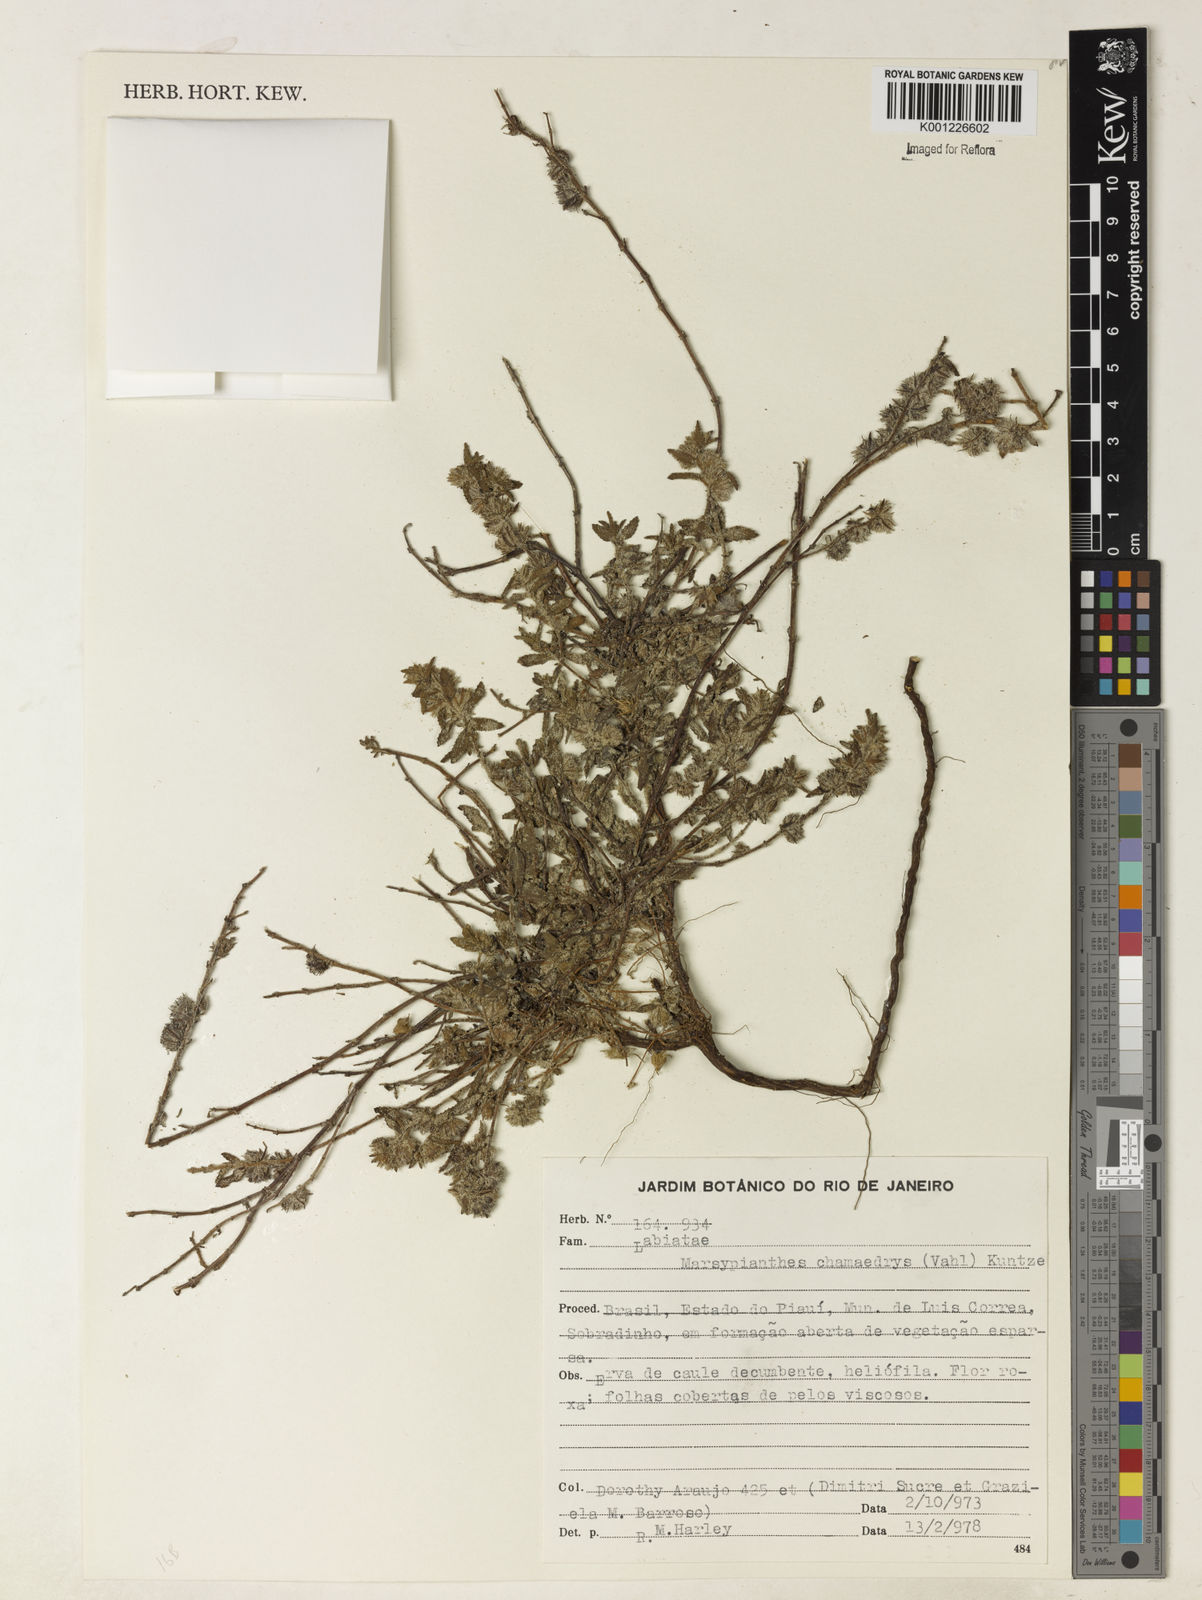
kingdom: Plantae
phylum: Tracheophyta
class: Magnoliopsida
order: Lamiales
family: Lamiaceae
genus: Marsypianthes
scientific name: Marsypianthes chamaedrys
